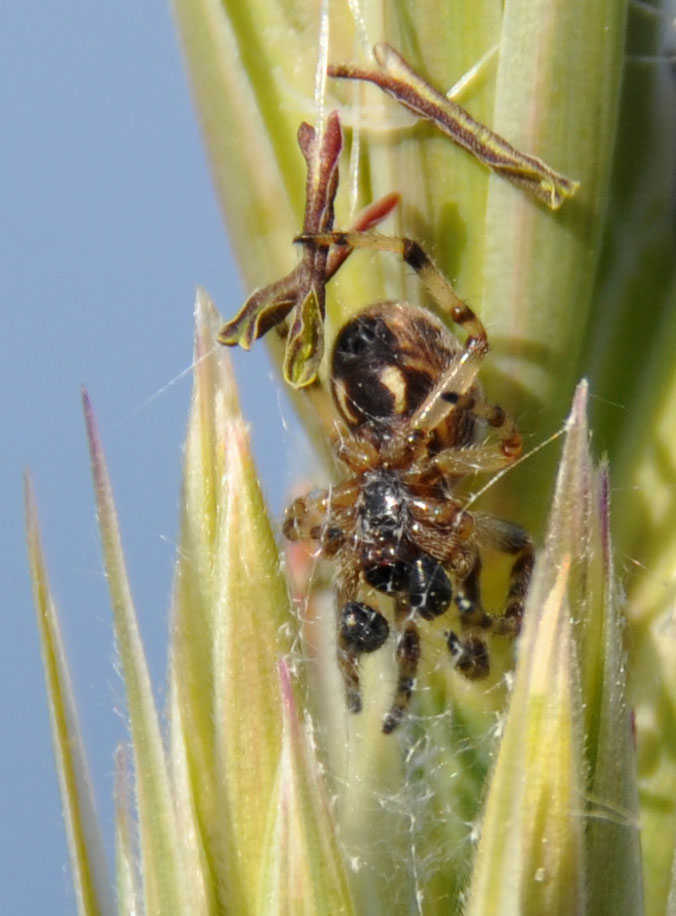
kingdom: Animalia
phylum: Arthropoda
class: Arachnida
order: Araneae
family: Araneidae
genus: Larinioides
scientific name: Larinioides cornutus
